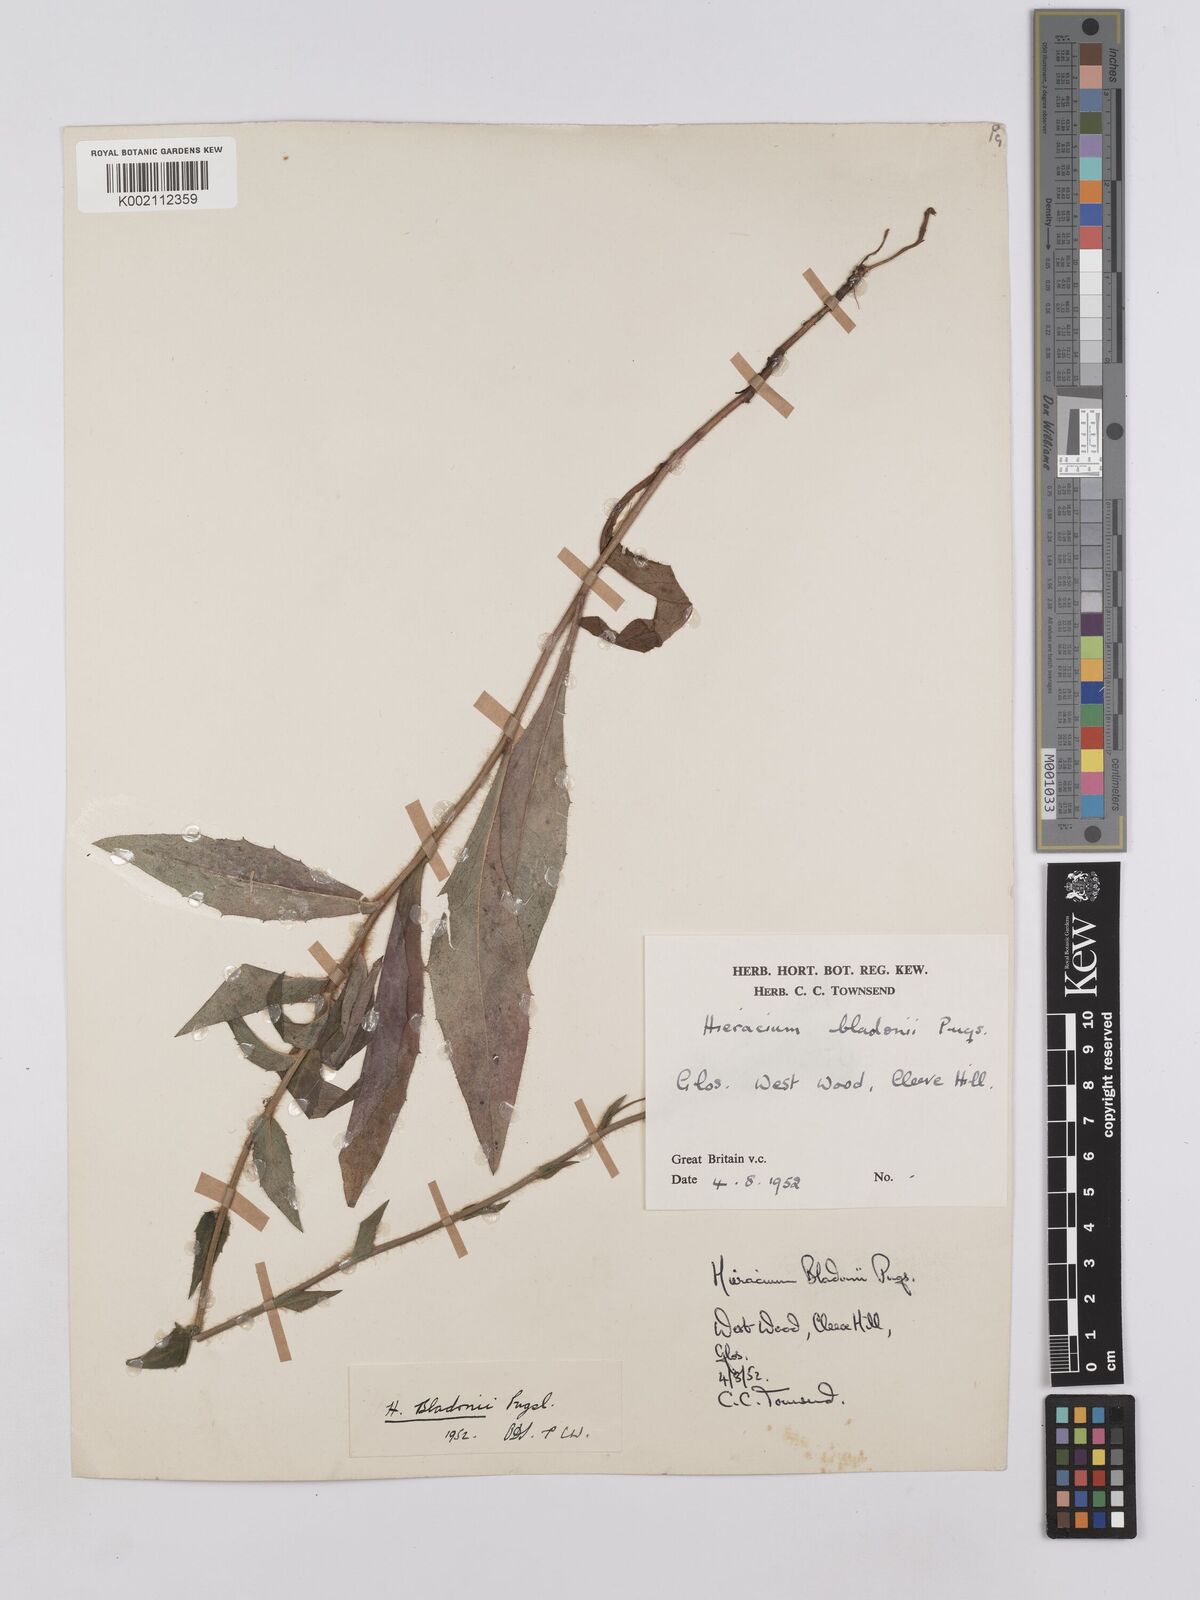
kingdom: Plantae
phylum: Tracheophyta
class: Magnoliopsida
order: Asterales
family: Asteraceae
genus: Hieracium
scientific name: Hieracium sabaudum
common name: New england hawkweed
